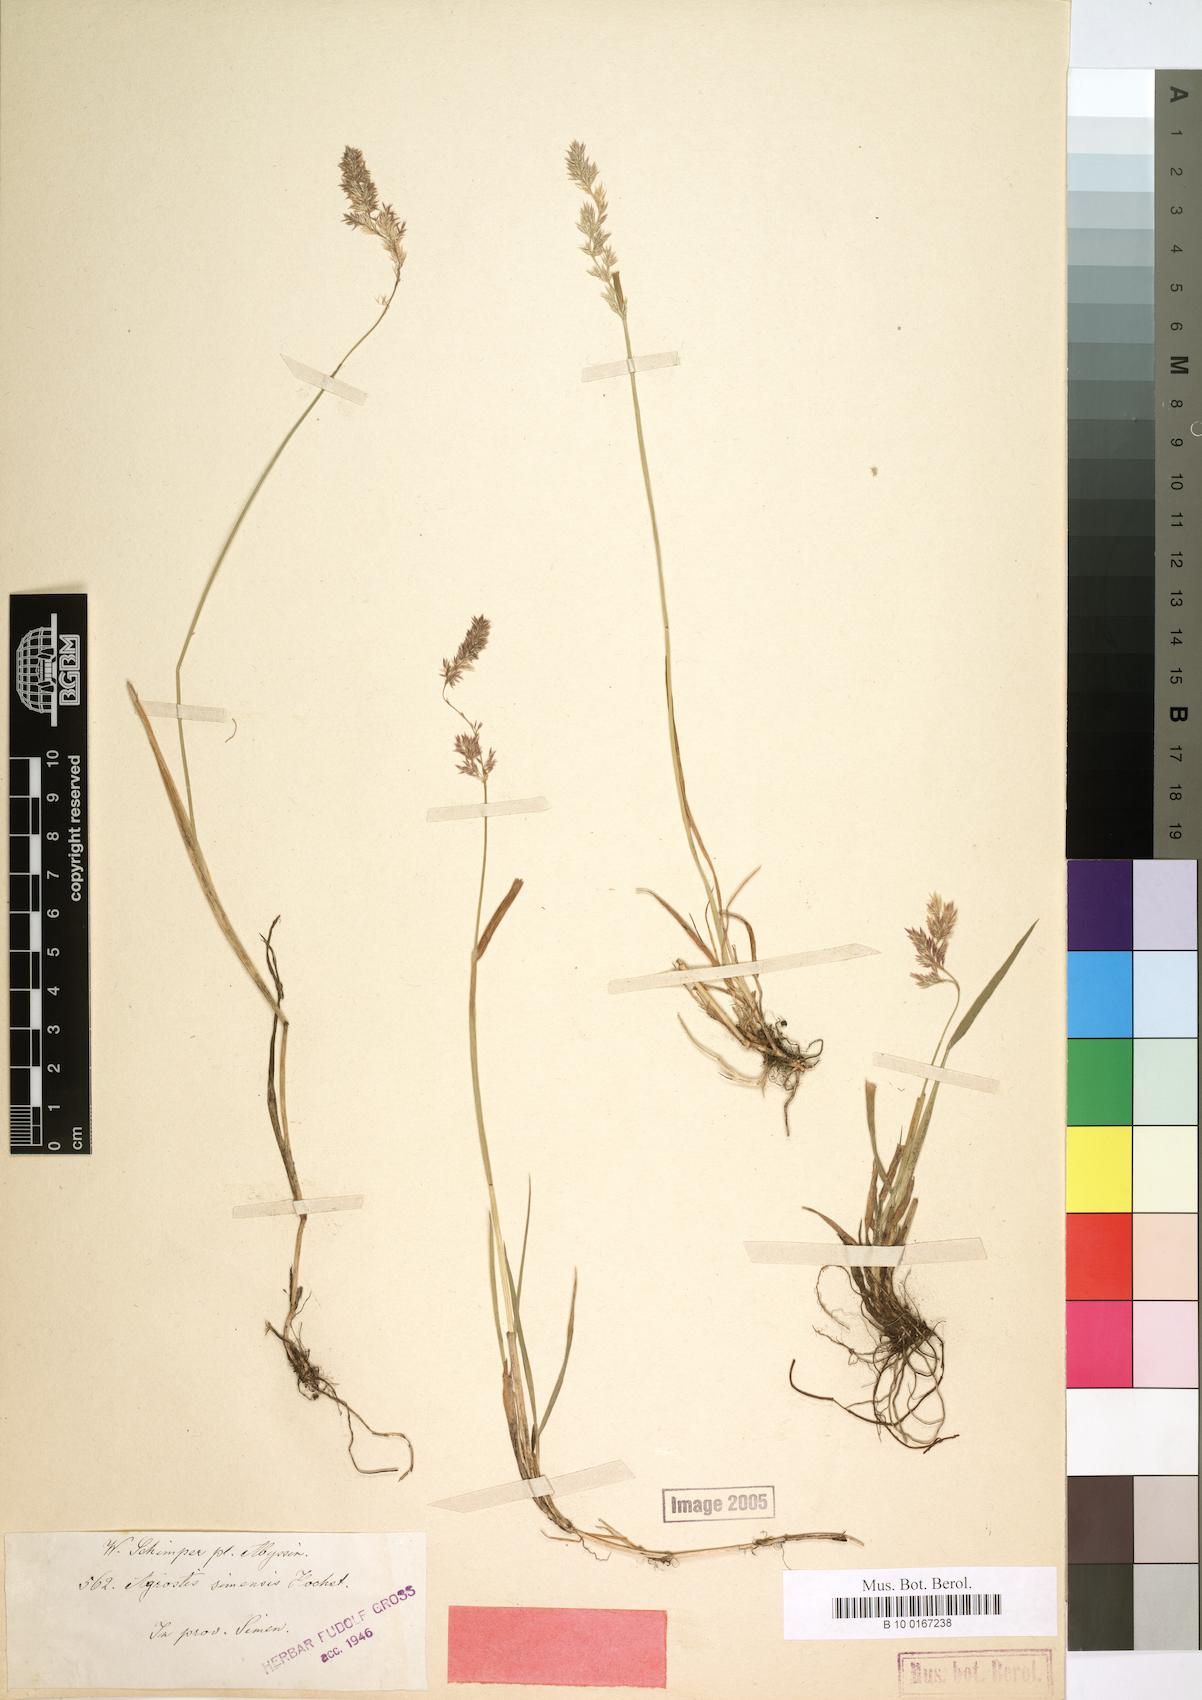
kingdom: Plantae
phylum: Tracheophyta
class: Liliopsida
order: Poales
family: Poaceae
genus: Polypogon
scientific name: Polypogon schimperianus
